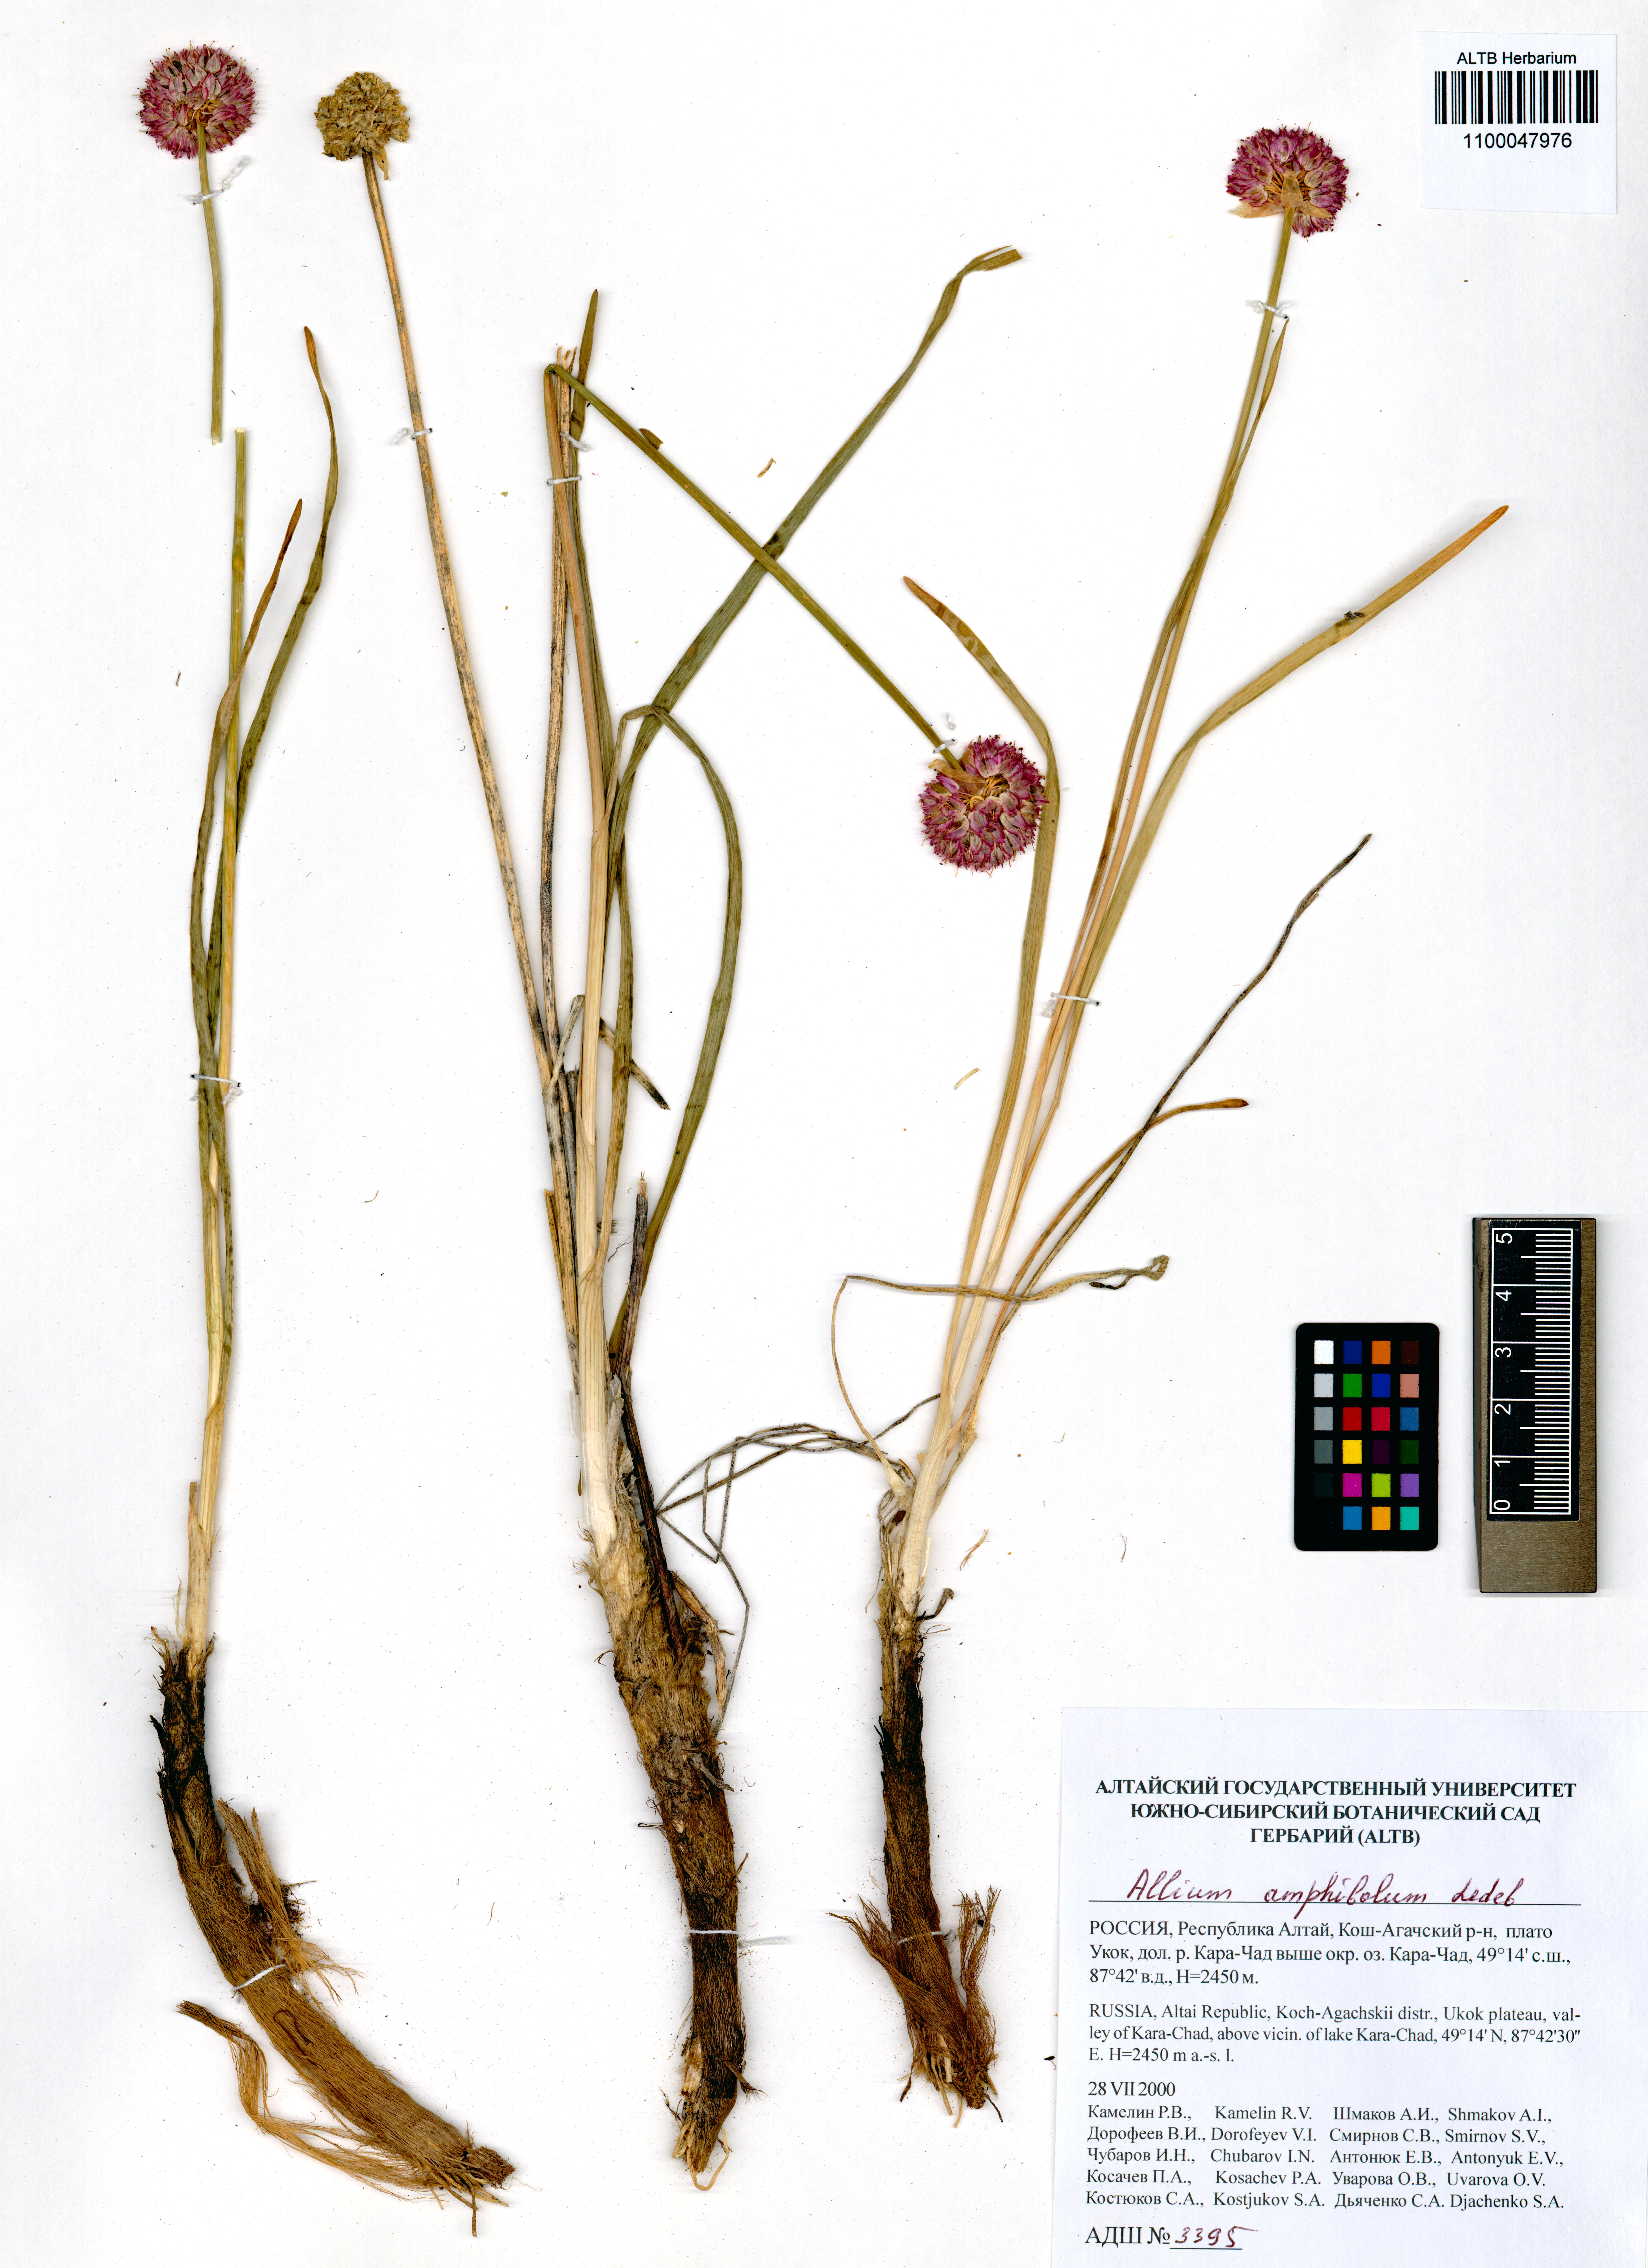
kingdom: Plantae
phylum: Tracheophyta
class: Liliopsida
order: Asparagales
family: Amaryllidaceae
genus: Allium
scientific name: Allium amphibolum
